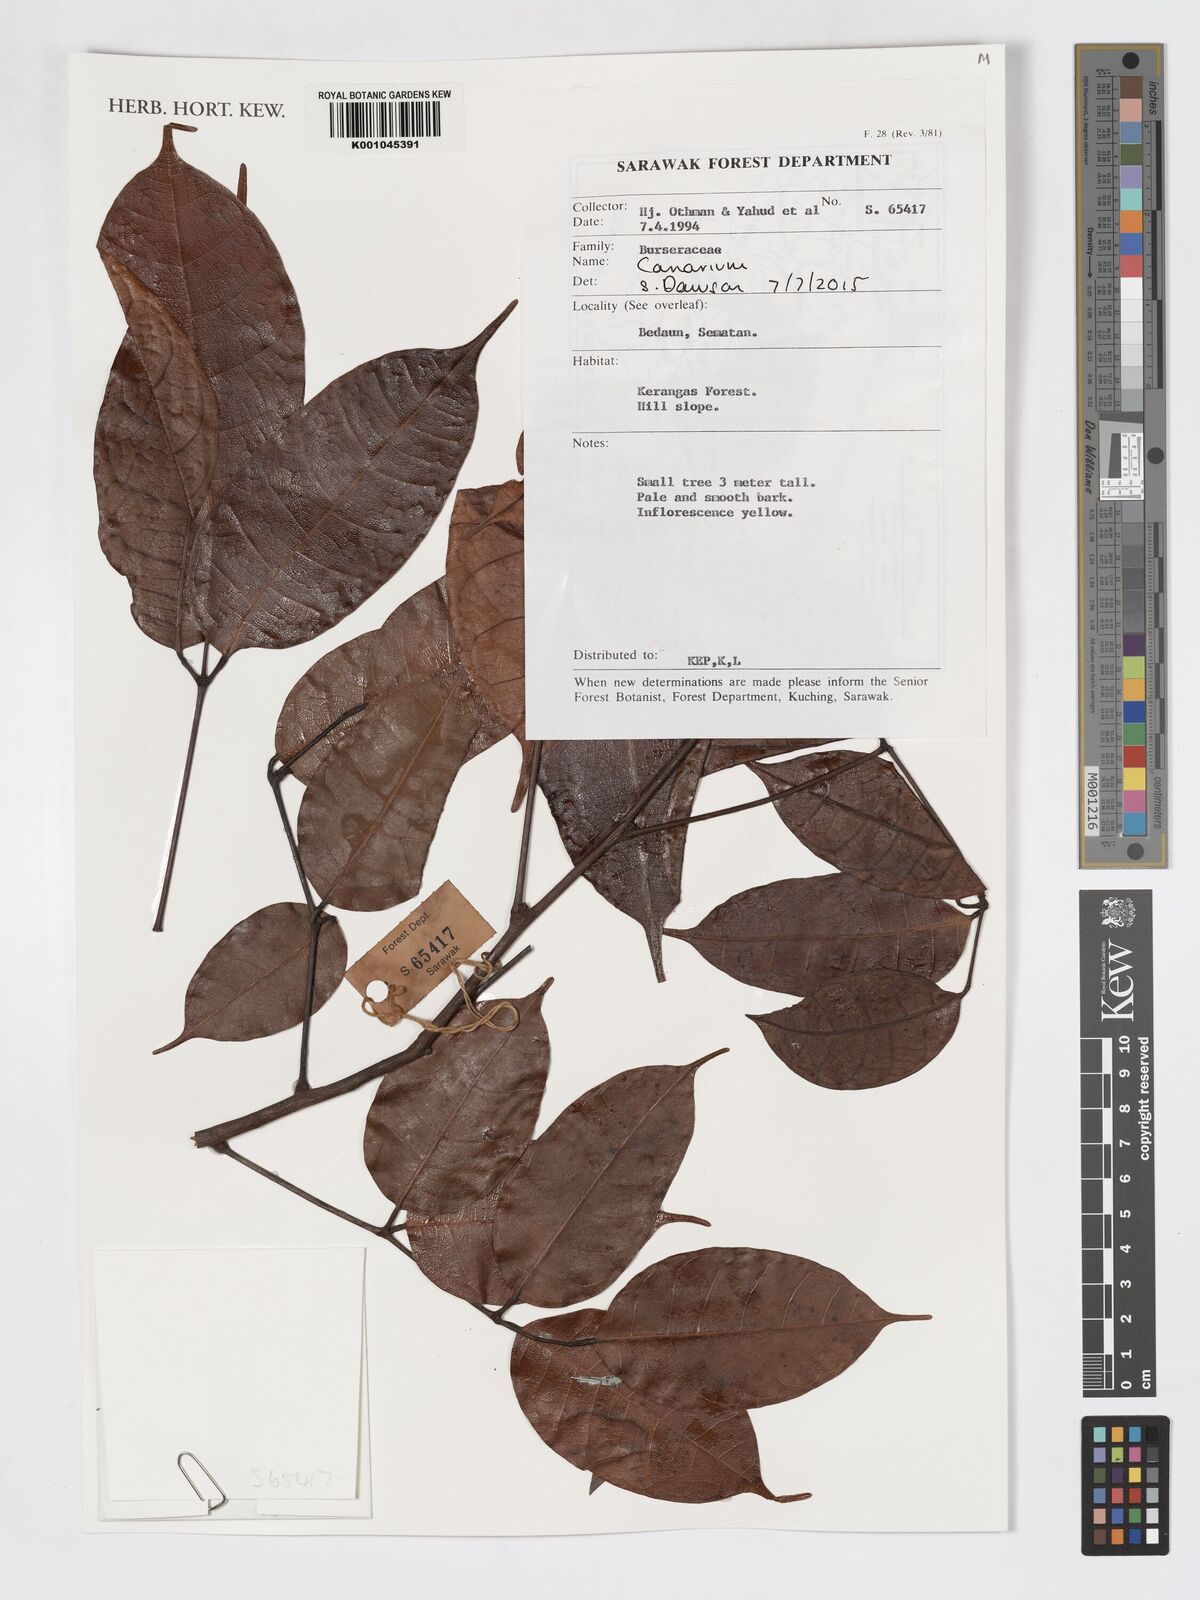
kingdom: Plantae
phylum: Tracheophyta
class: Magnoliopsida
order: Sapindales
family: Burseraceae
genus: Canarium
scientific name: Canarium
